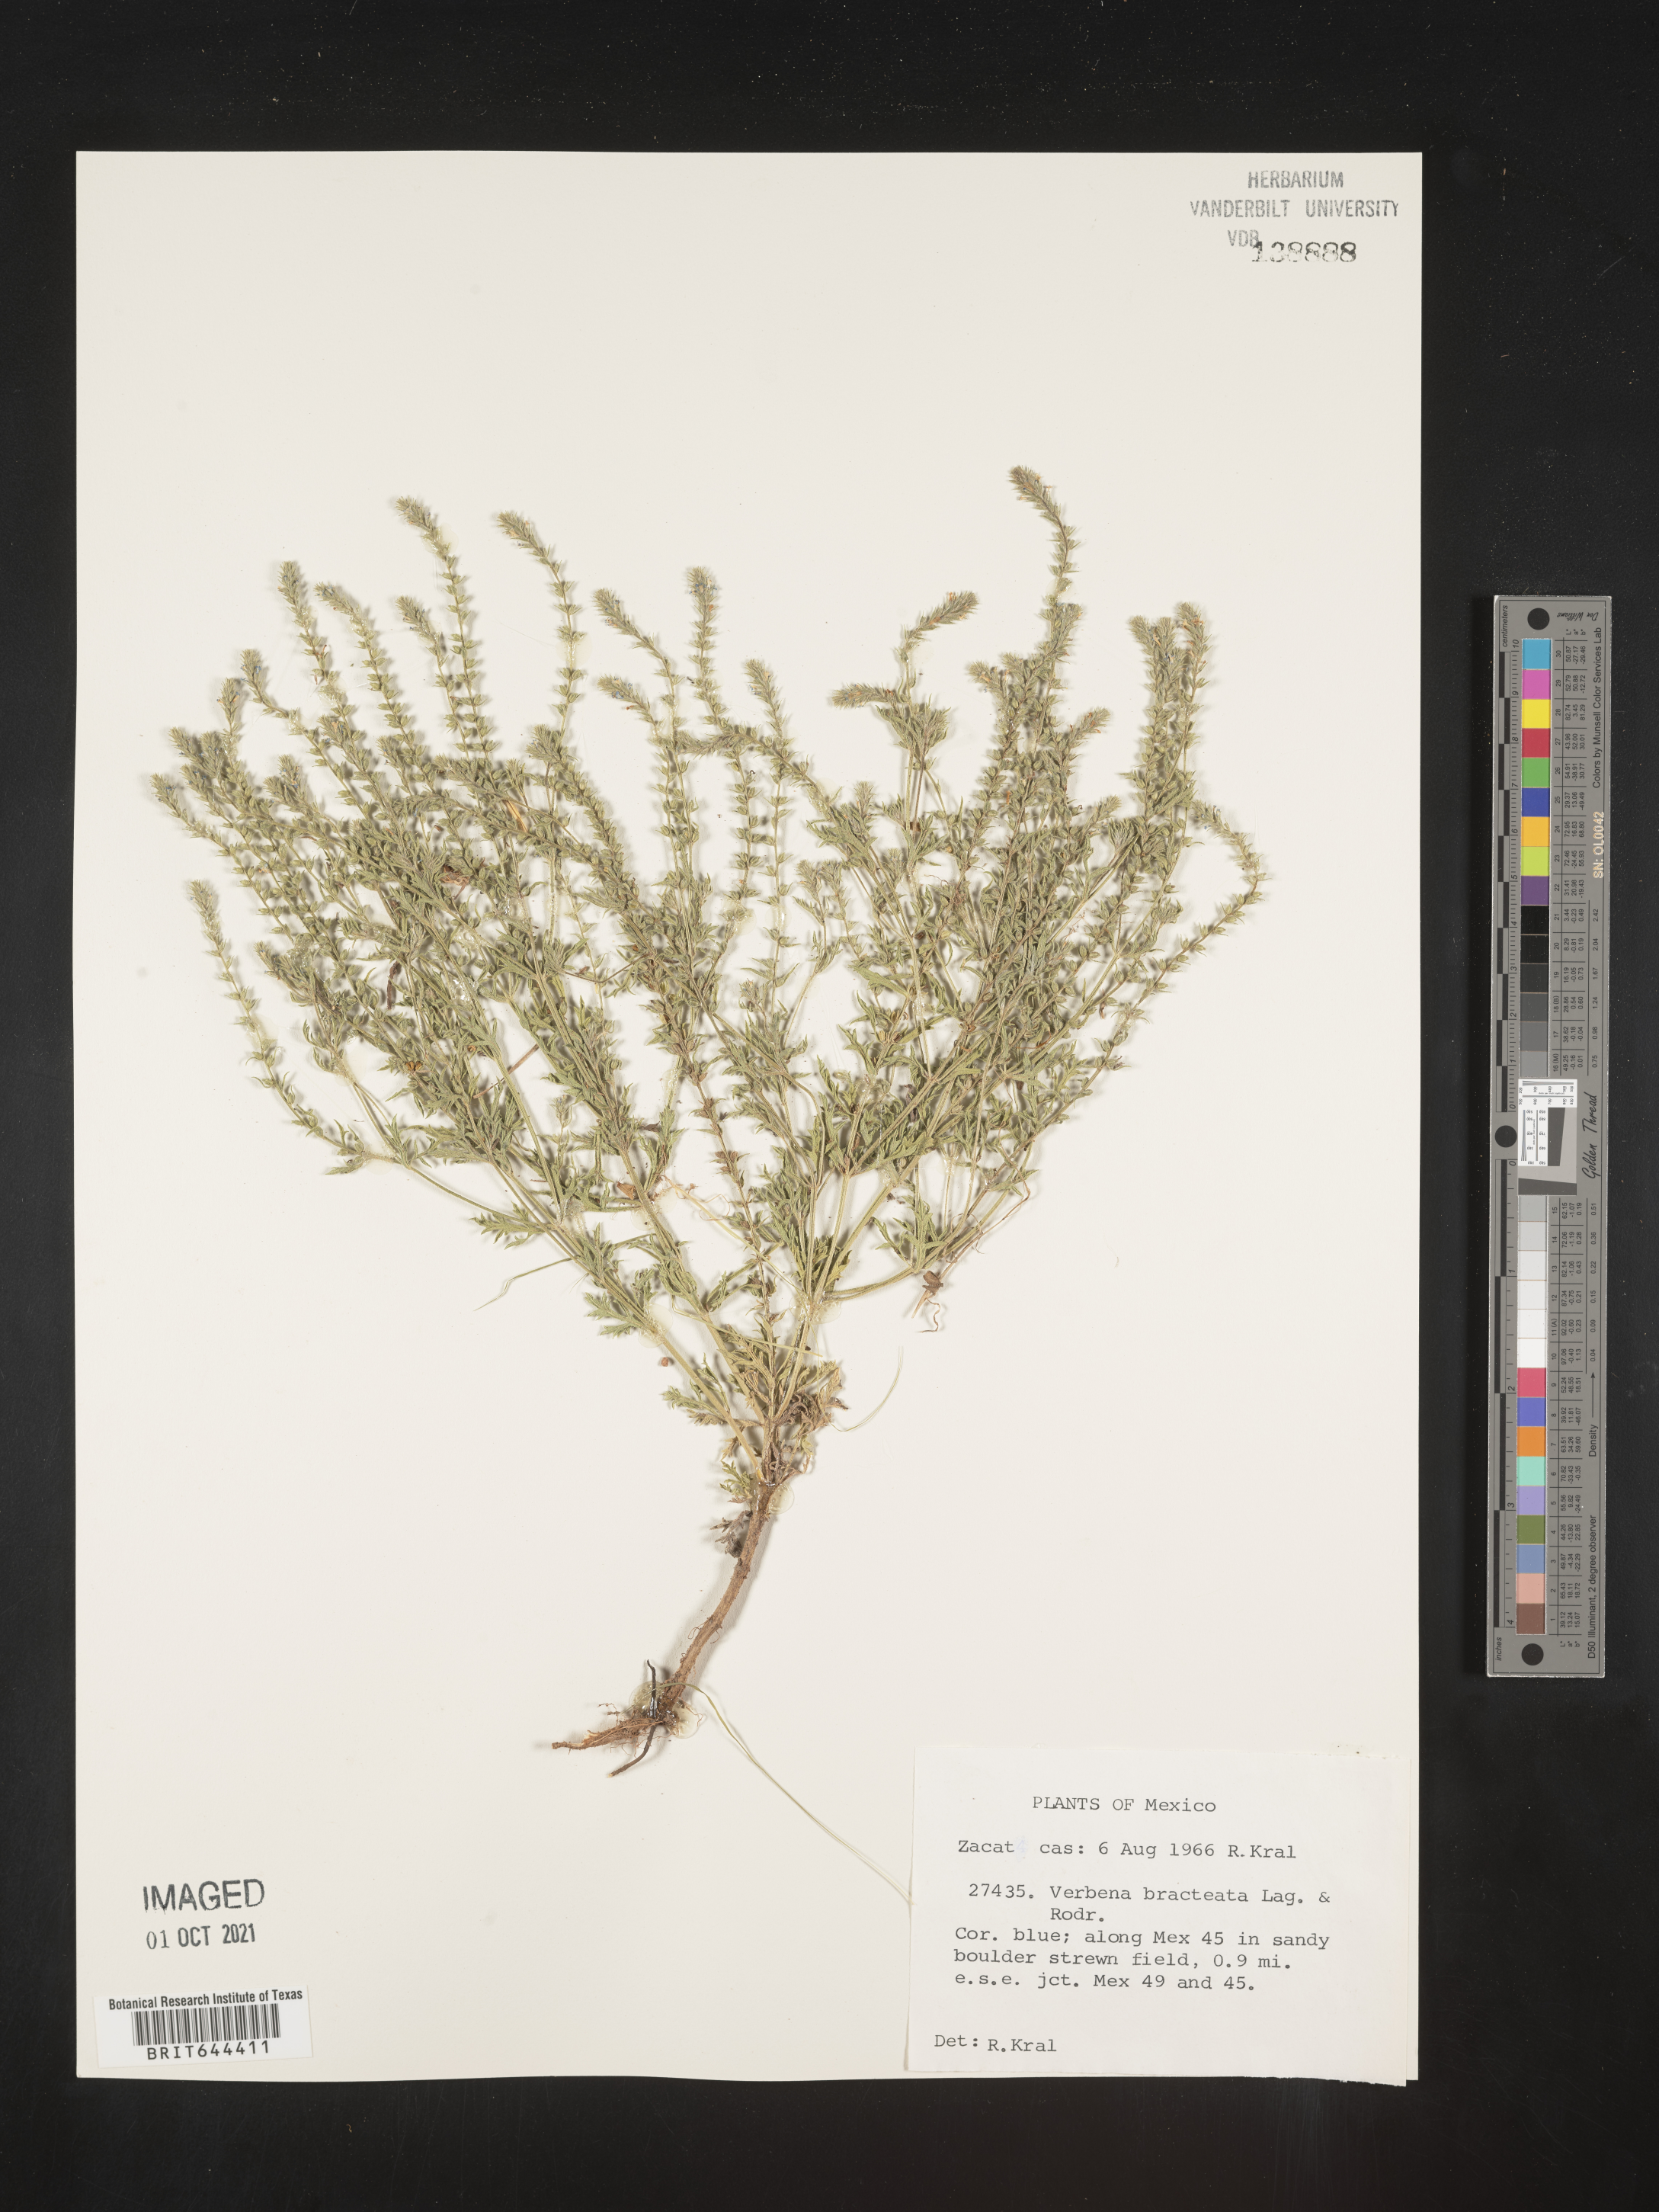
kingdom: Plantae
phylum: Tracheophyta
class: Magnoliopsida
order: Lamiales
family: Verbenaceae
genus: Verbena
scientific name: Verbena
